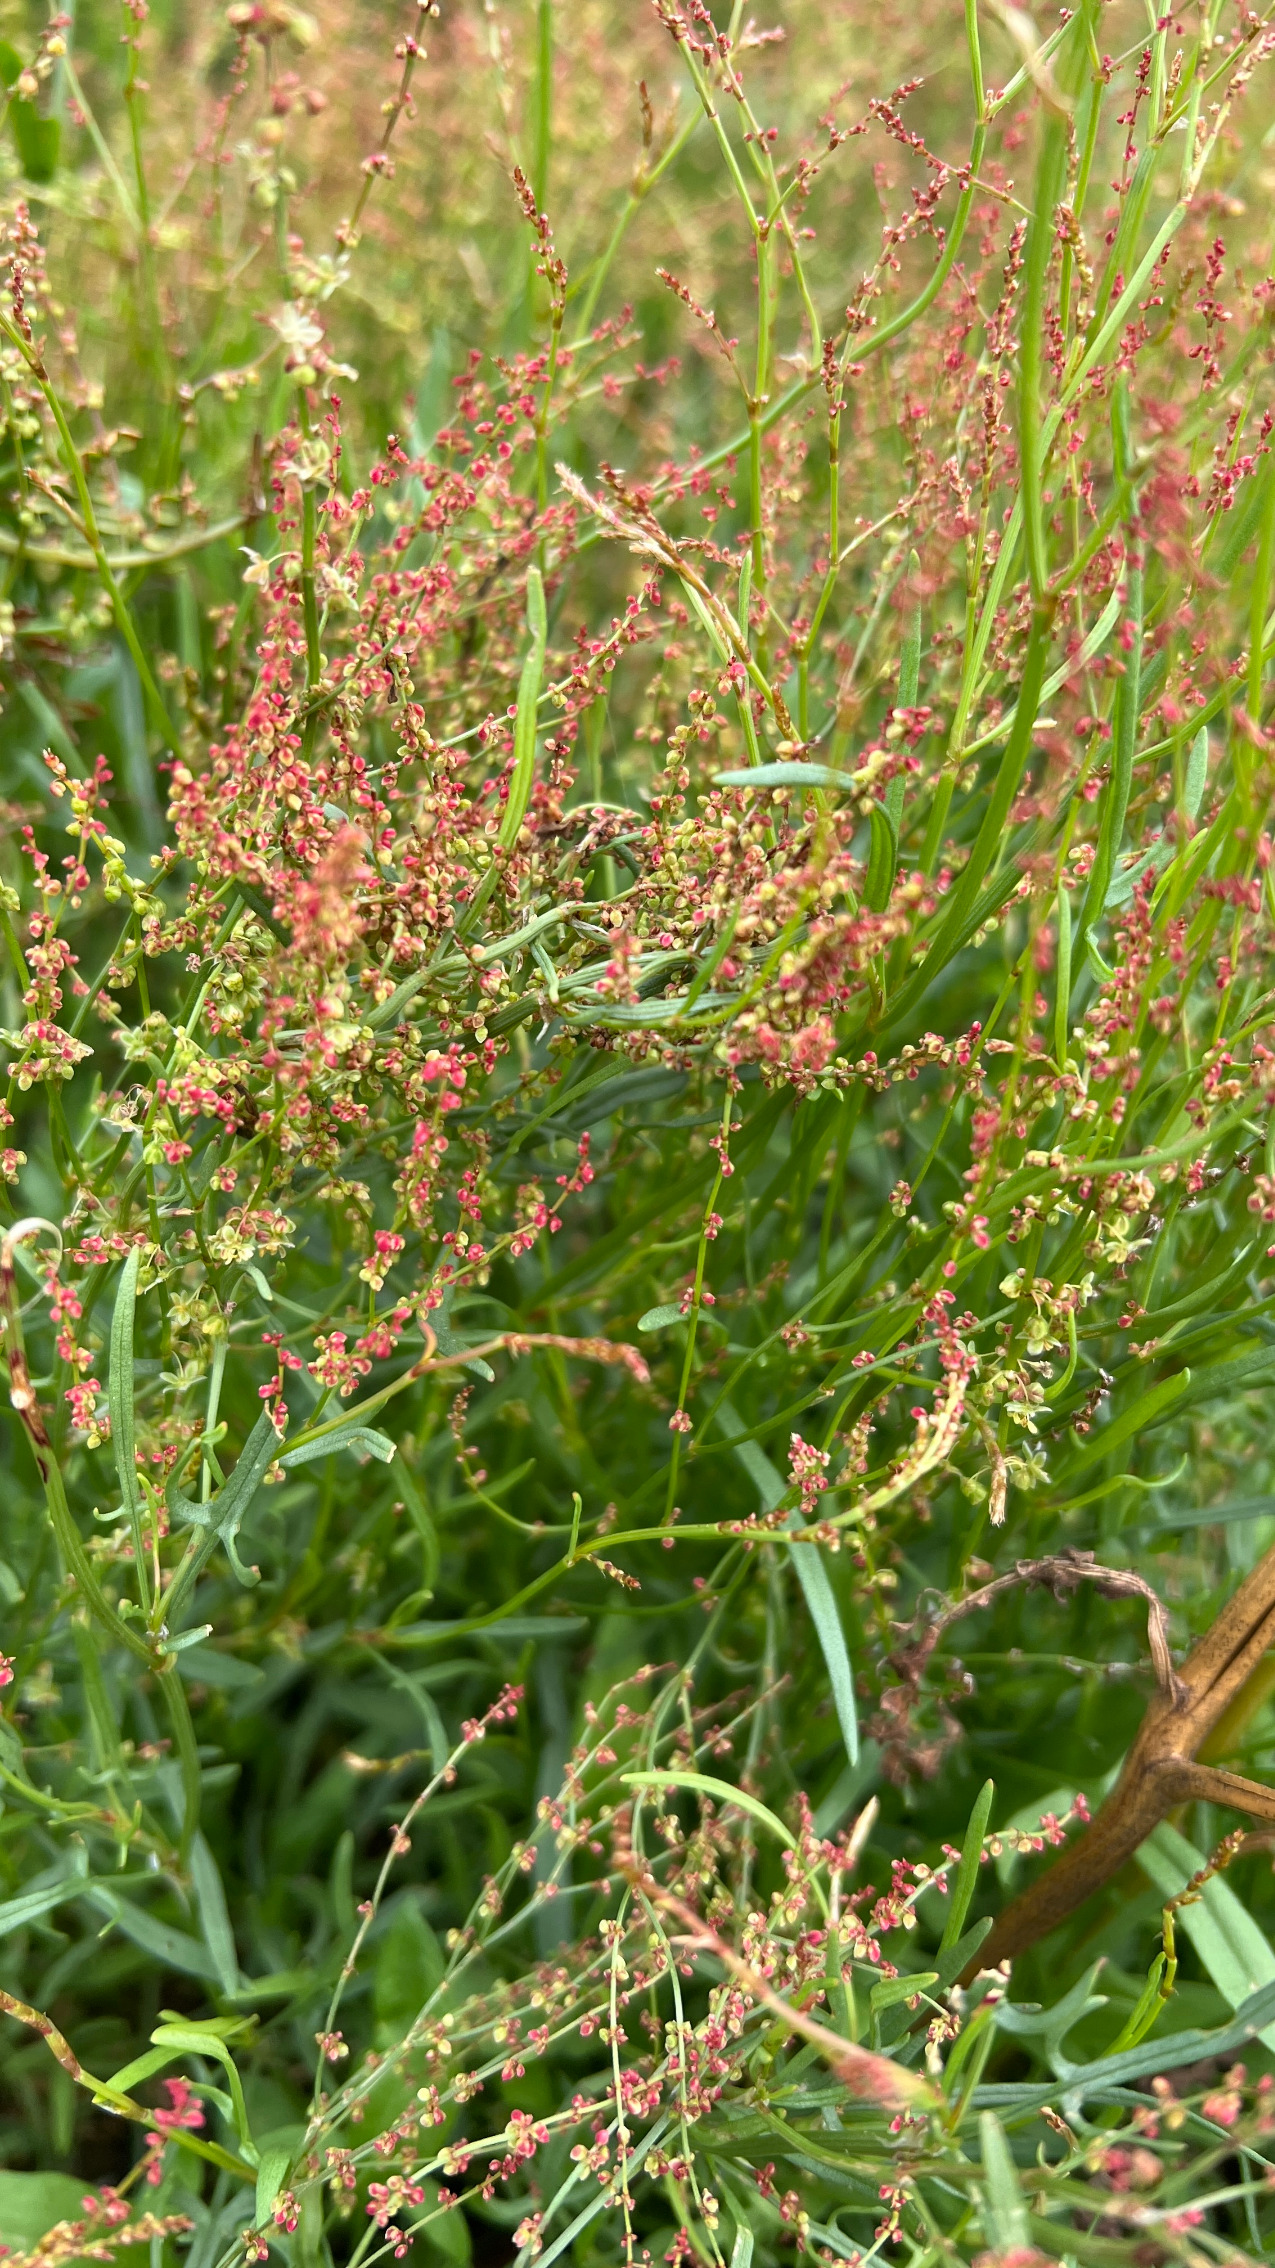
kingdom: Plantae
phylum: Tracheophyta
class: Magnoliopsida
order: Caryophyllales
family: Polygonaceae
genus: Rumex
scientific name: Rumex acetosella
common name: Rødknæ
